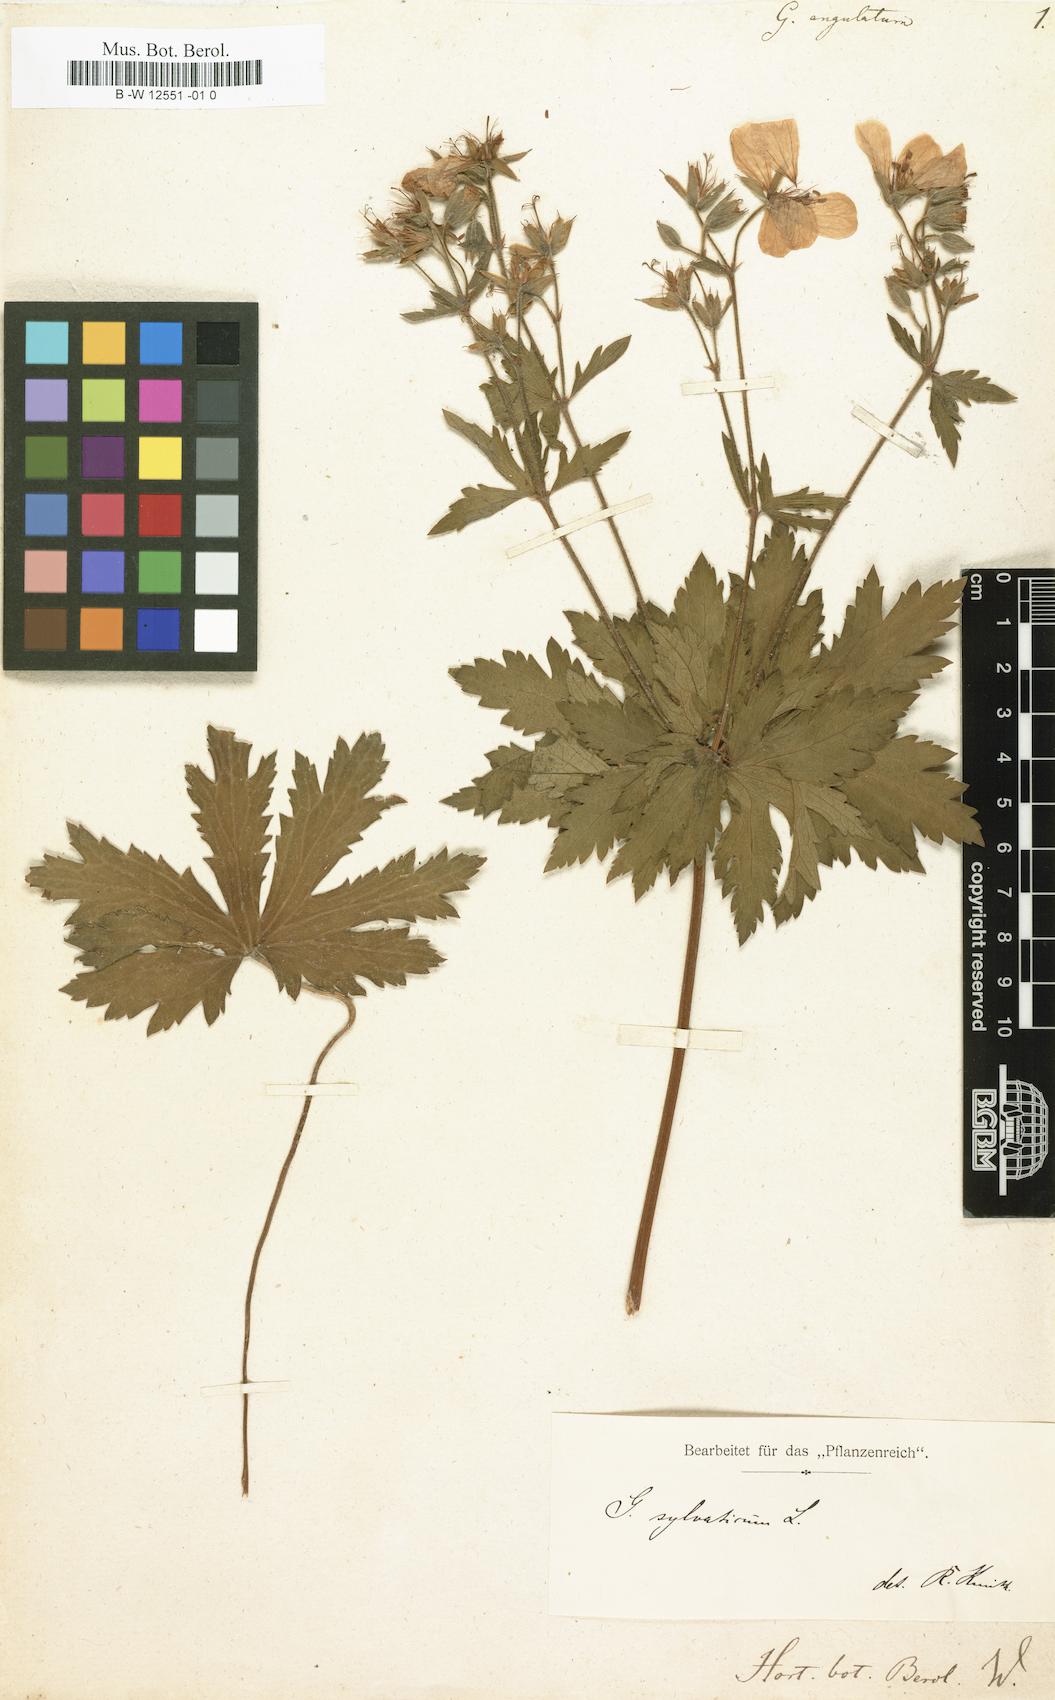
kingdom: Plantae
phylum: Tracheophyta
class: Magnoliopsida
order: Geraniales
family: Geraniaceae
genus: Geranium
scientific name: Geranium sylvaticum
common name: Wood crane's-bill
